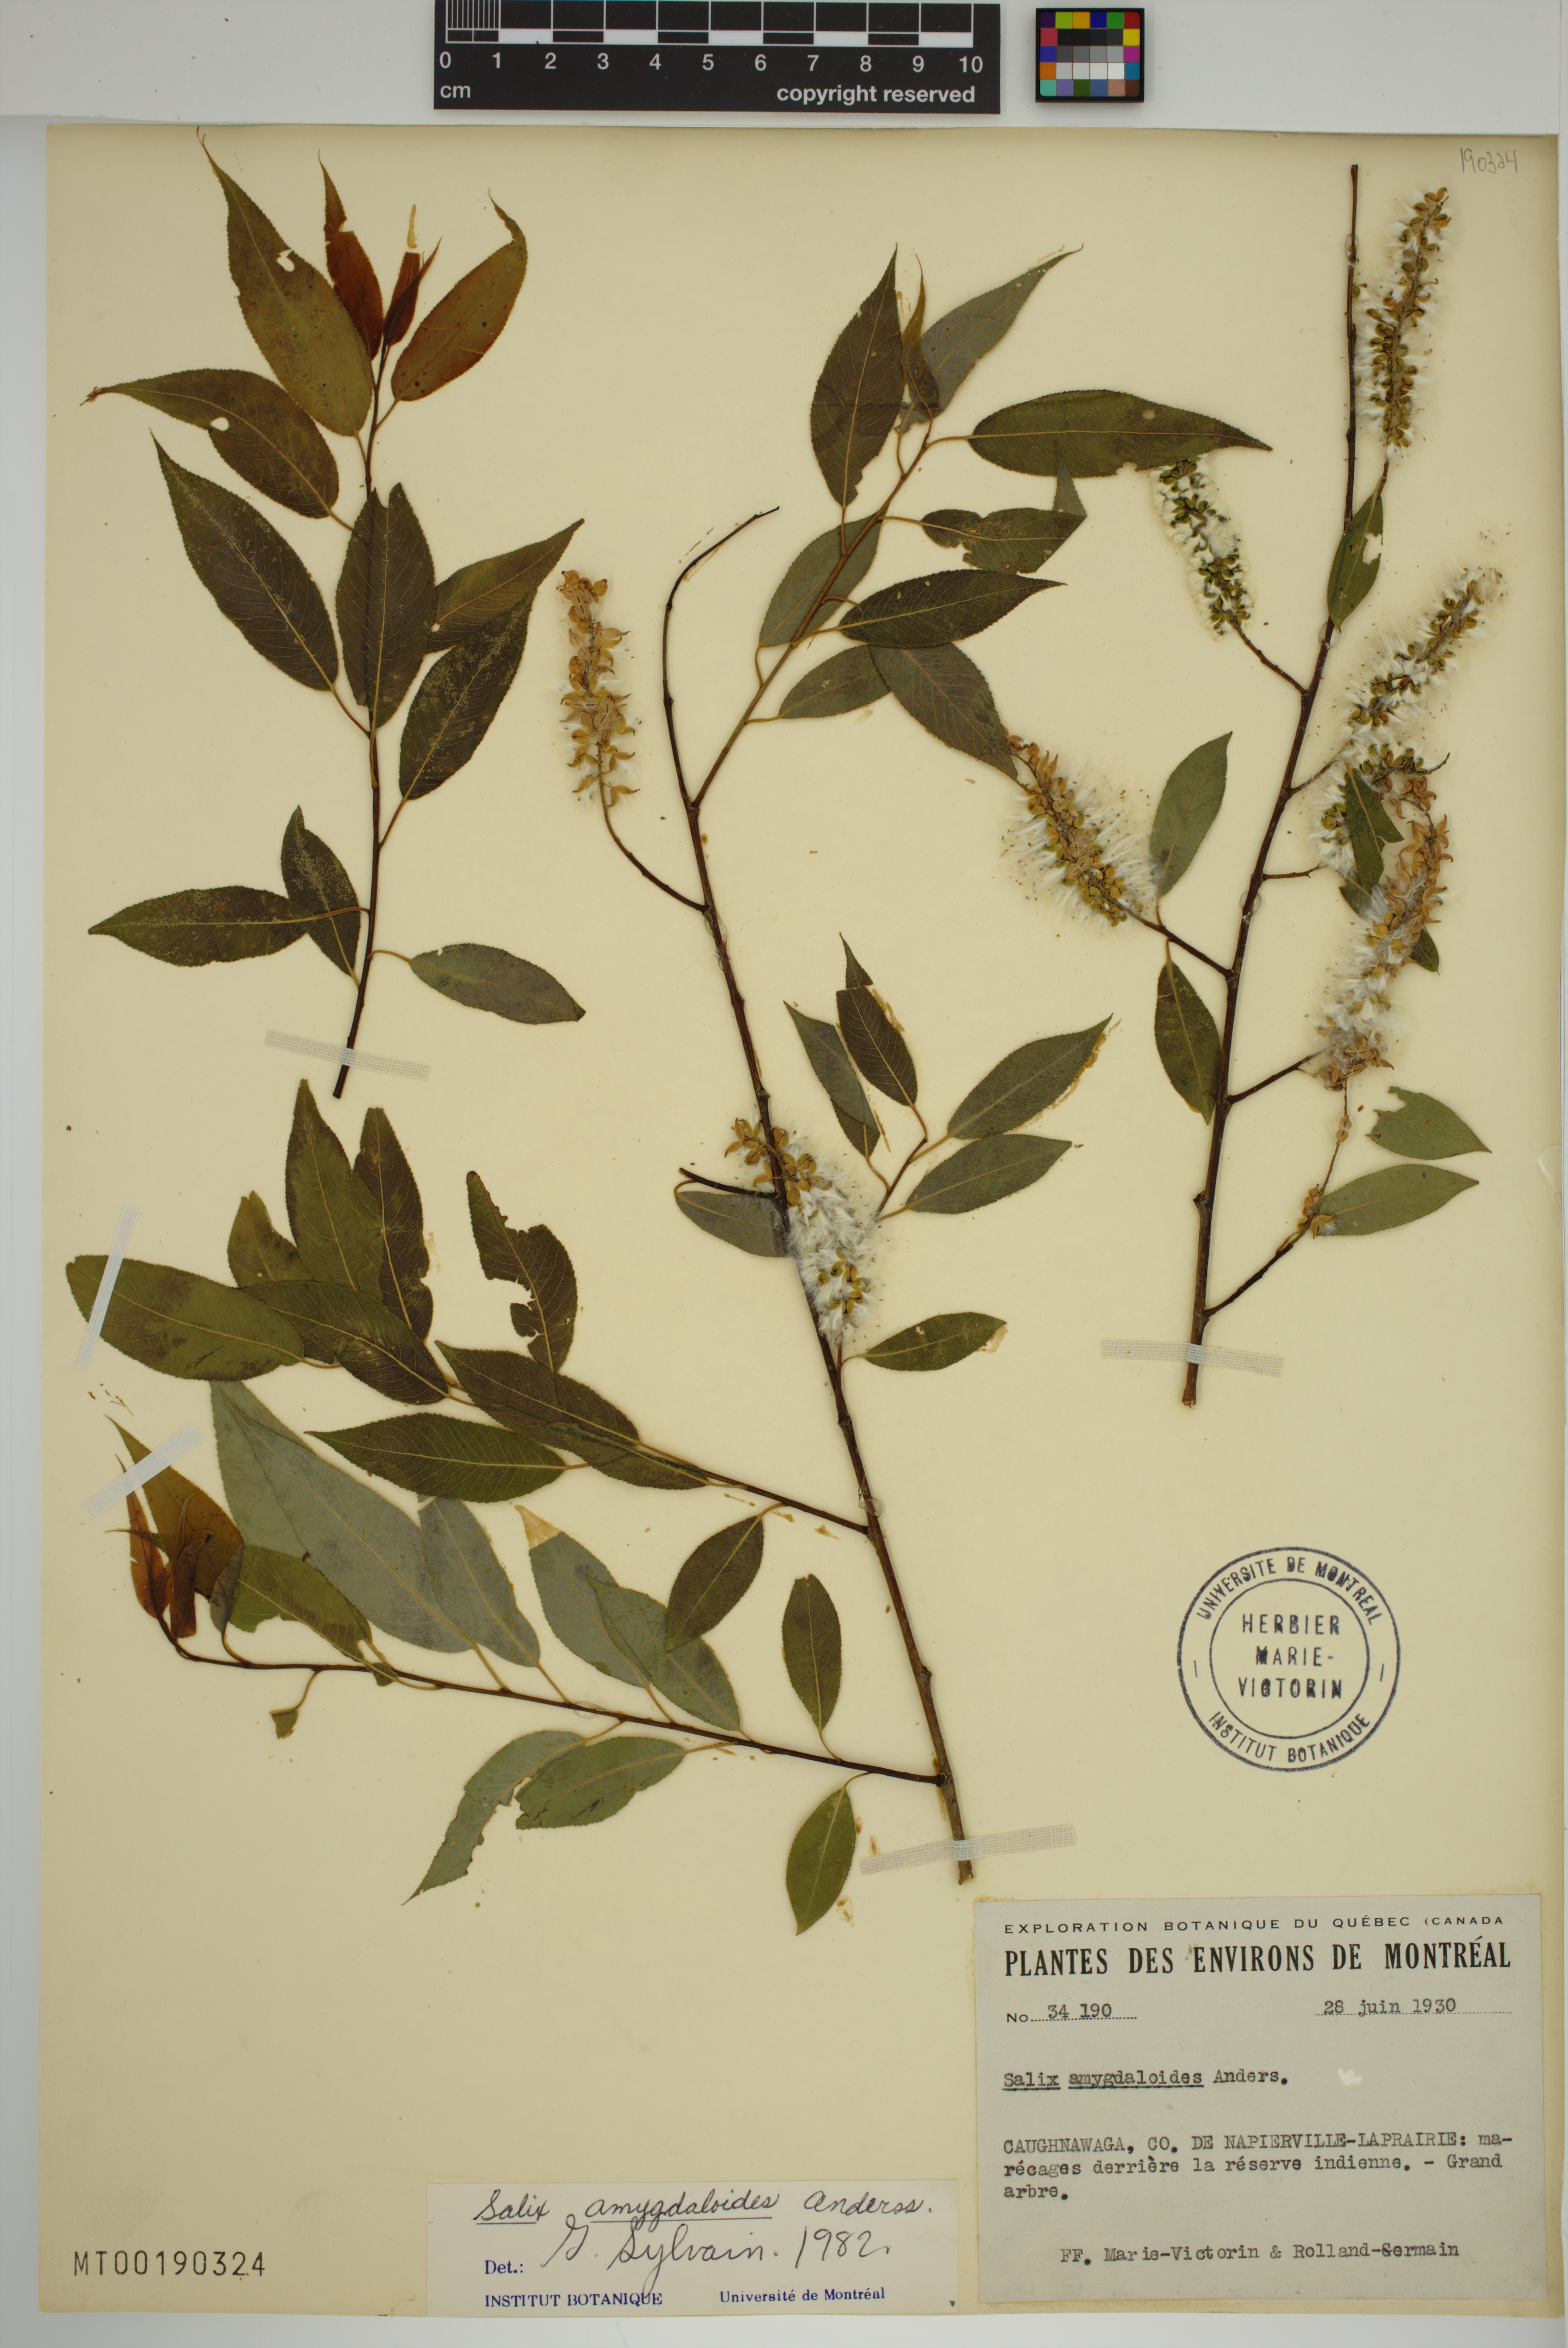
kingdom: Plantae
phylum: Tracheophyta
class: Magnoliopsida
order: Malpighiales
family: Salicaceae
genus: Salix
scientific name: Salix amygdaloides
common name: Peach leaf willow
